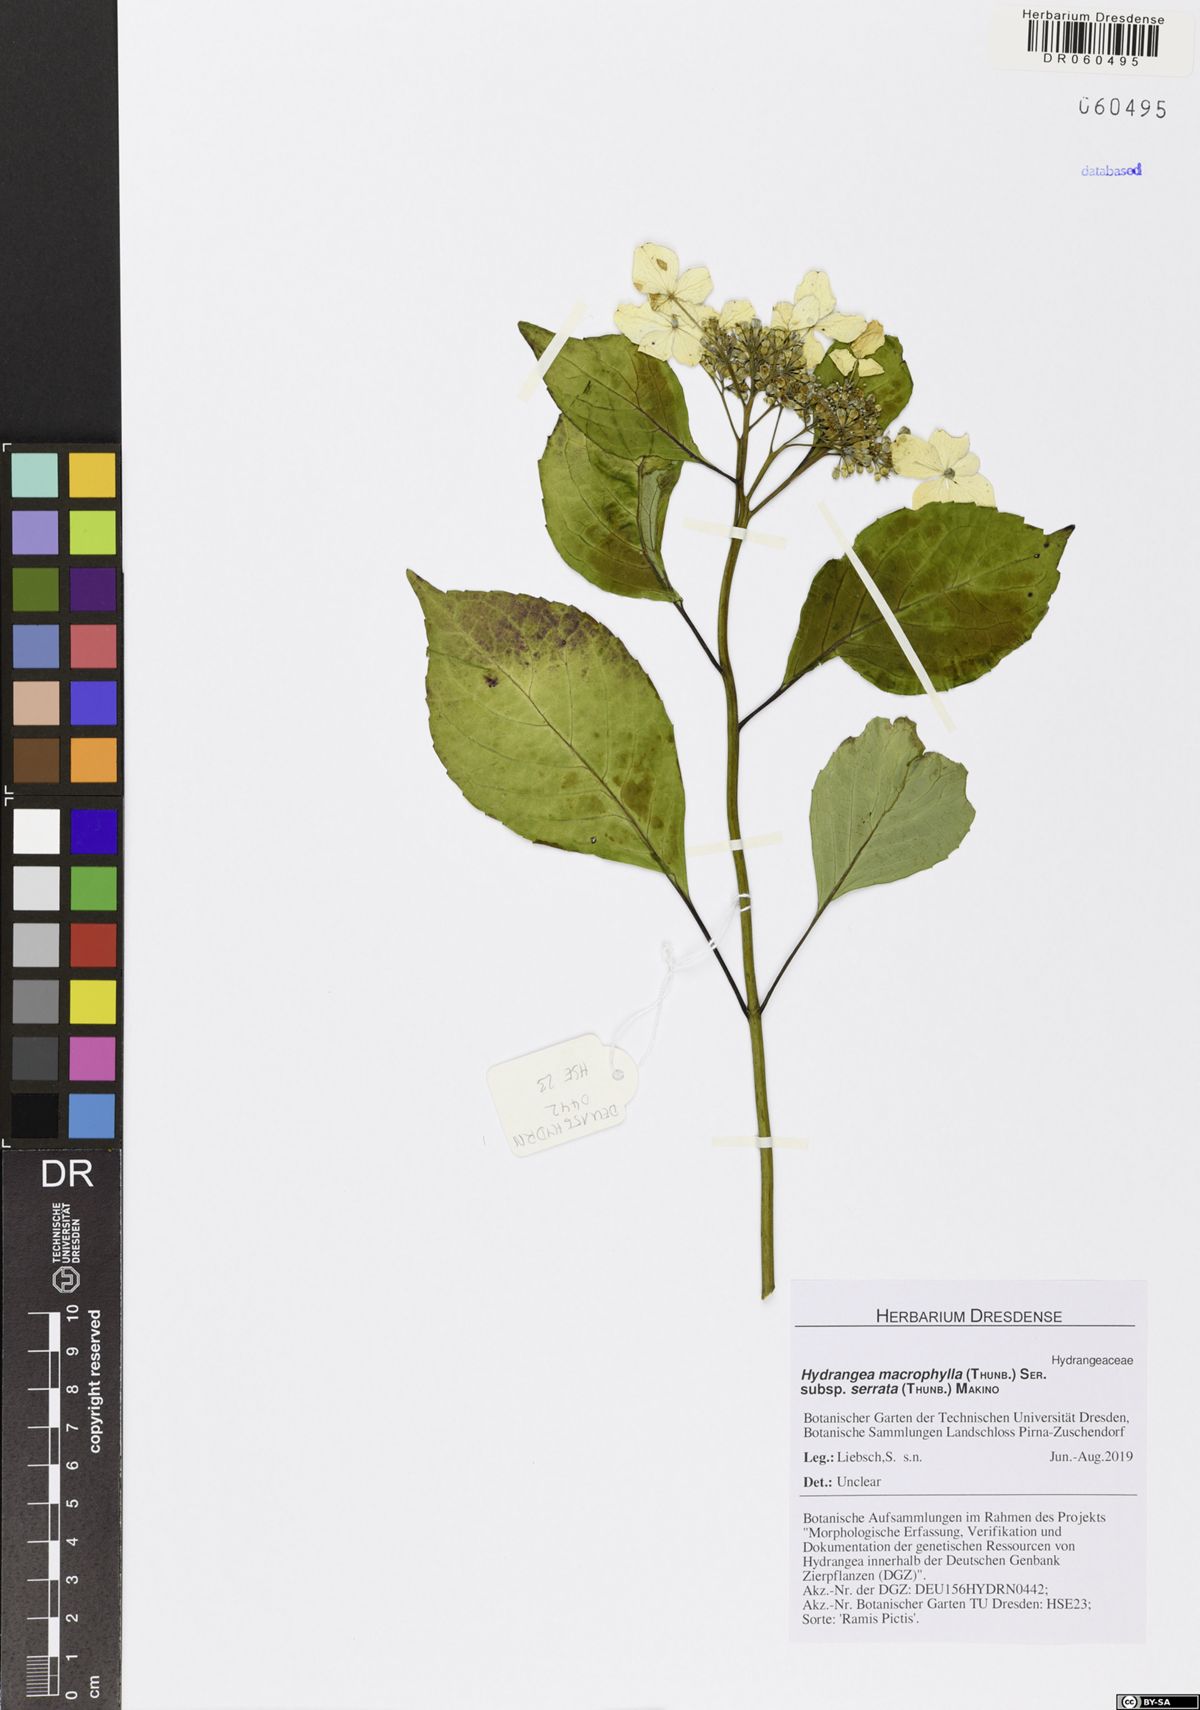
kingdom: Plantae
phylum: Tracheophyta
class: Magnoliopsida
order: Cornales
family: Hydrangeaceae
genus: Hydrangea
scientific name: Hydrangea serrata
